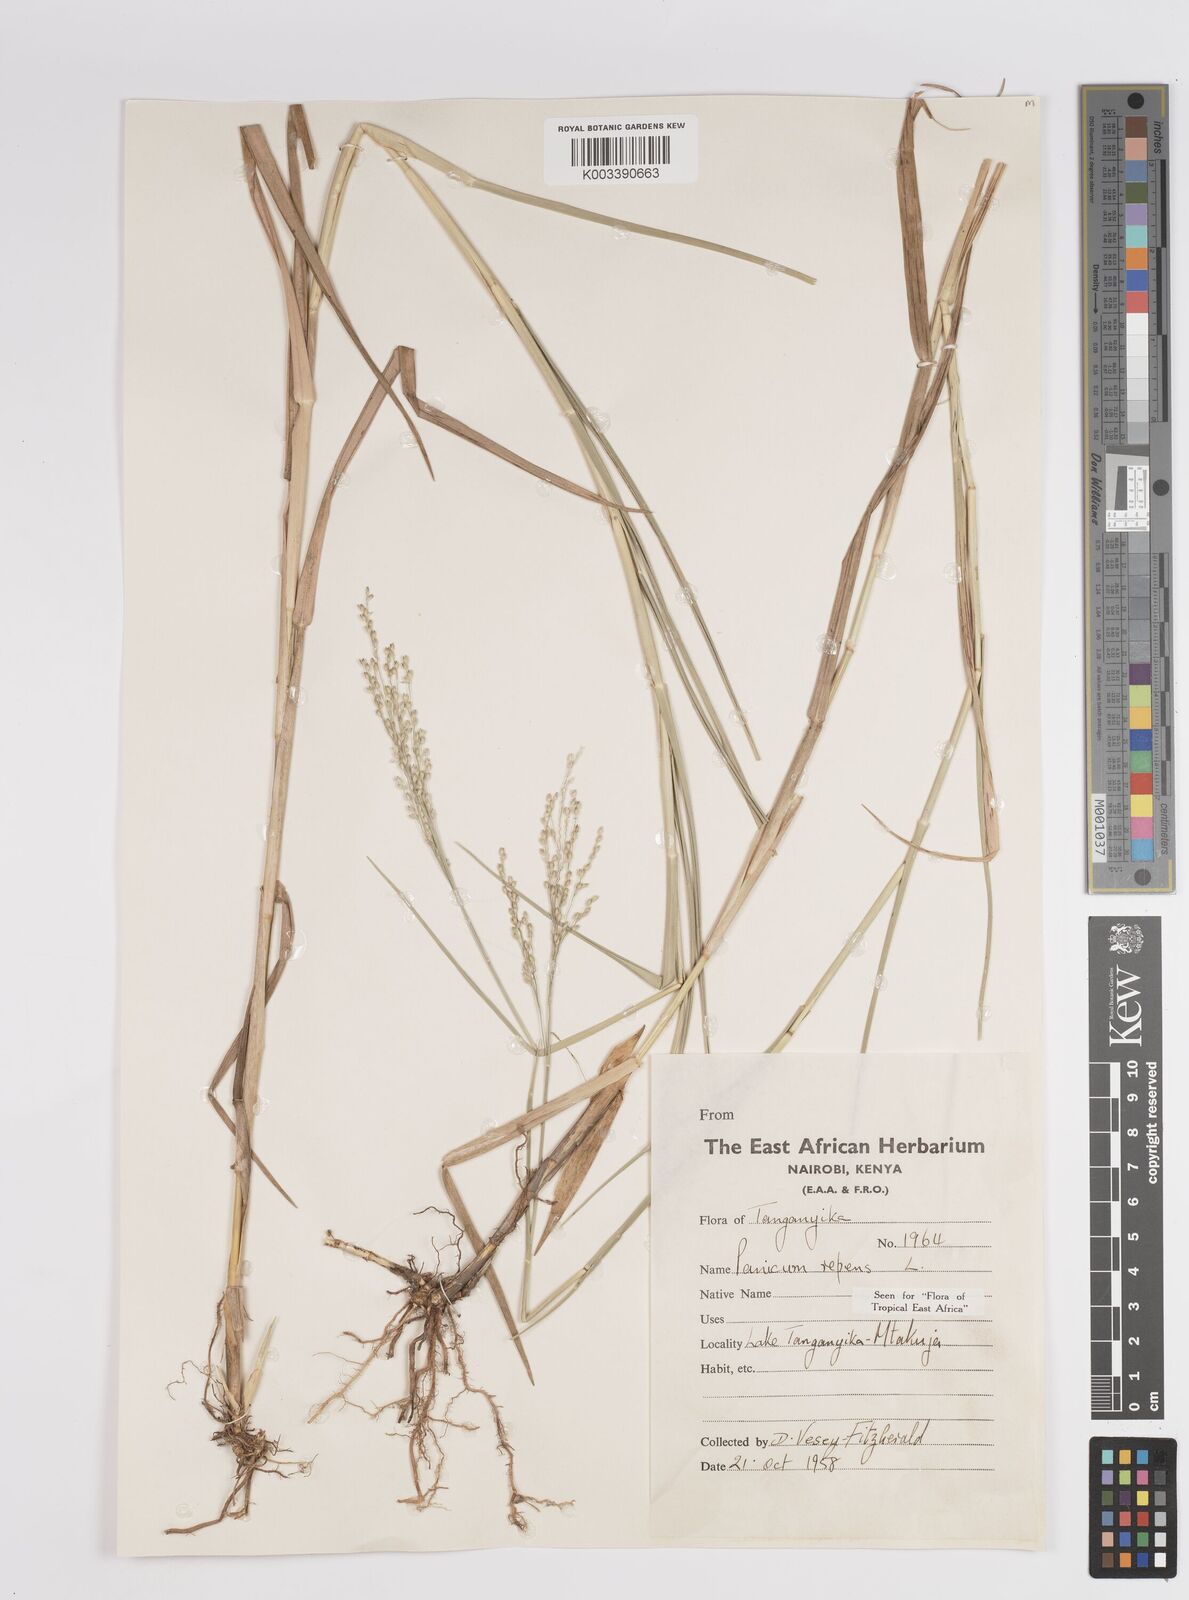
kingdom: Plantae
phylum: Tracheophyta
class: Liliopsida
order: Poales
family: Poaceae
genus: Panicum
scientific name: Panicum repens
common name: Torpedo grass
